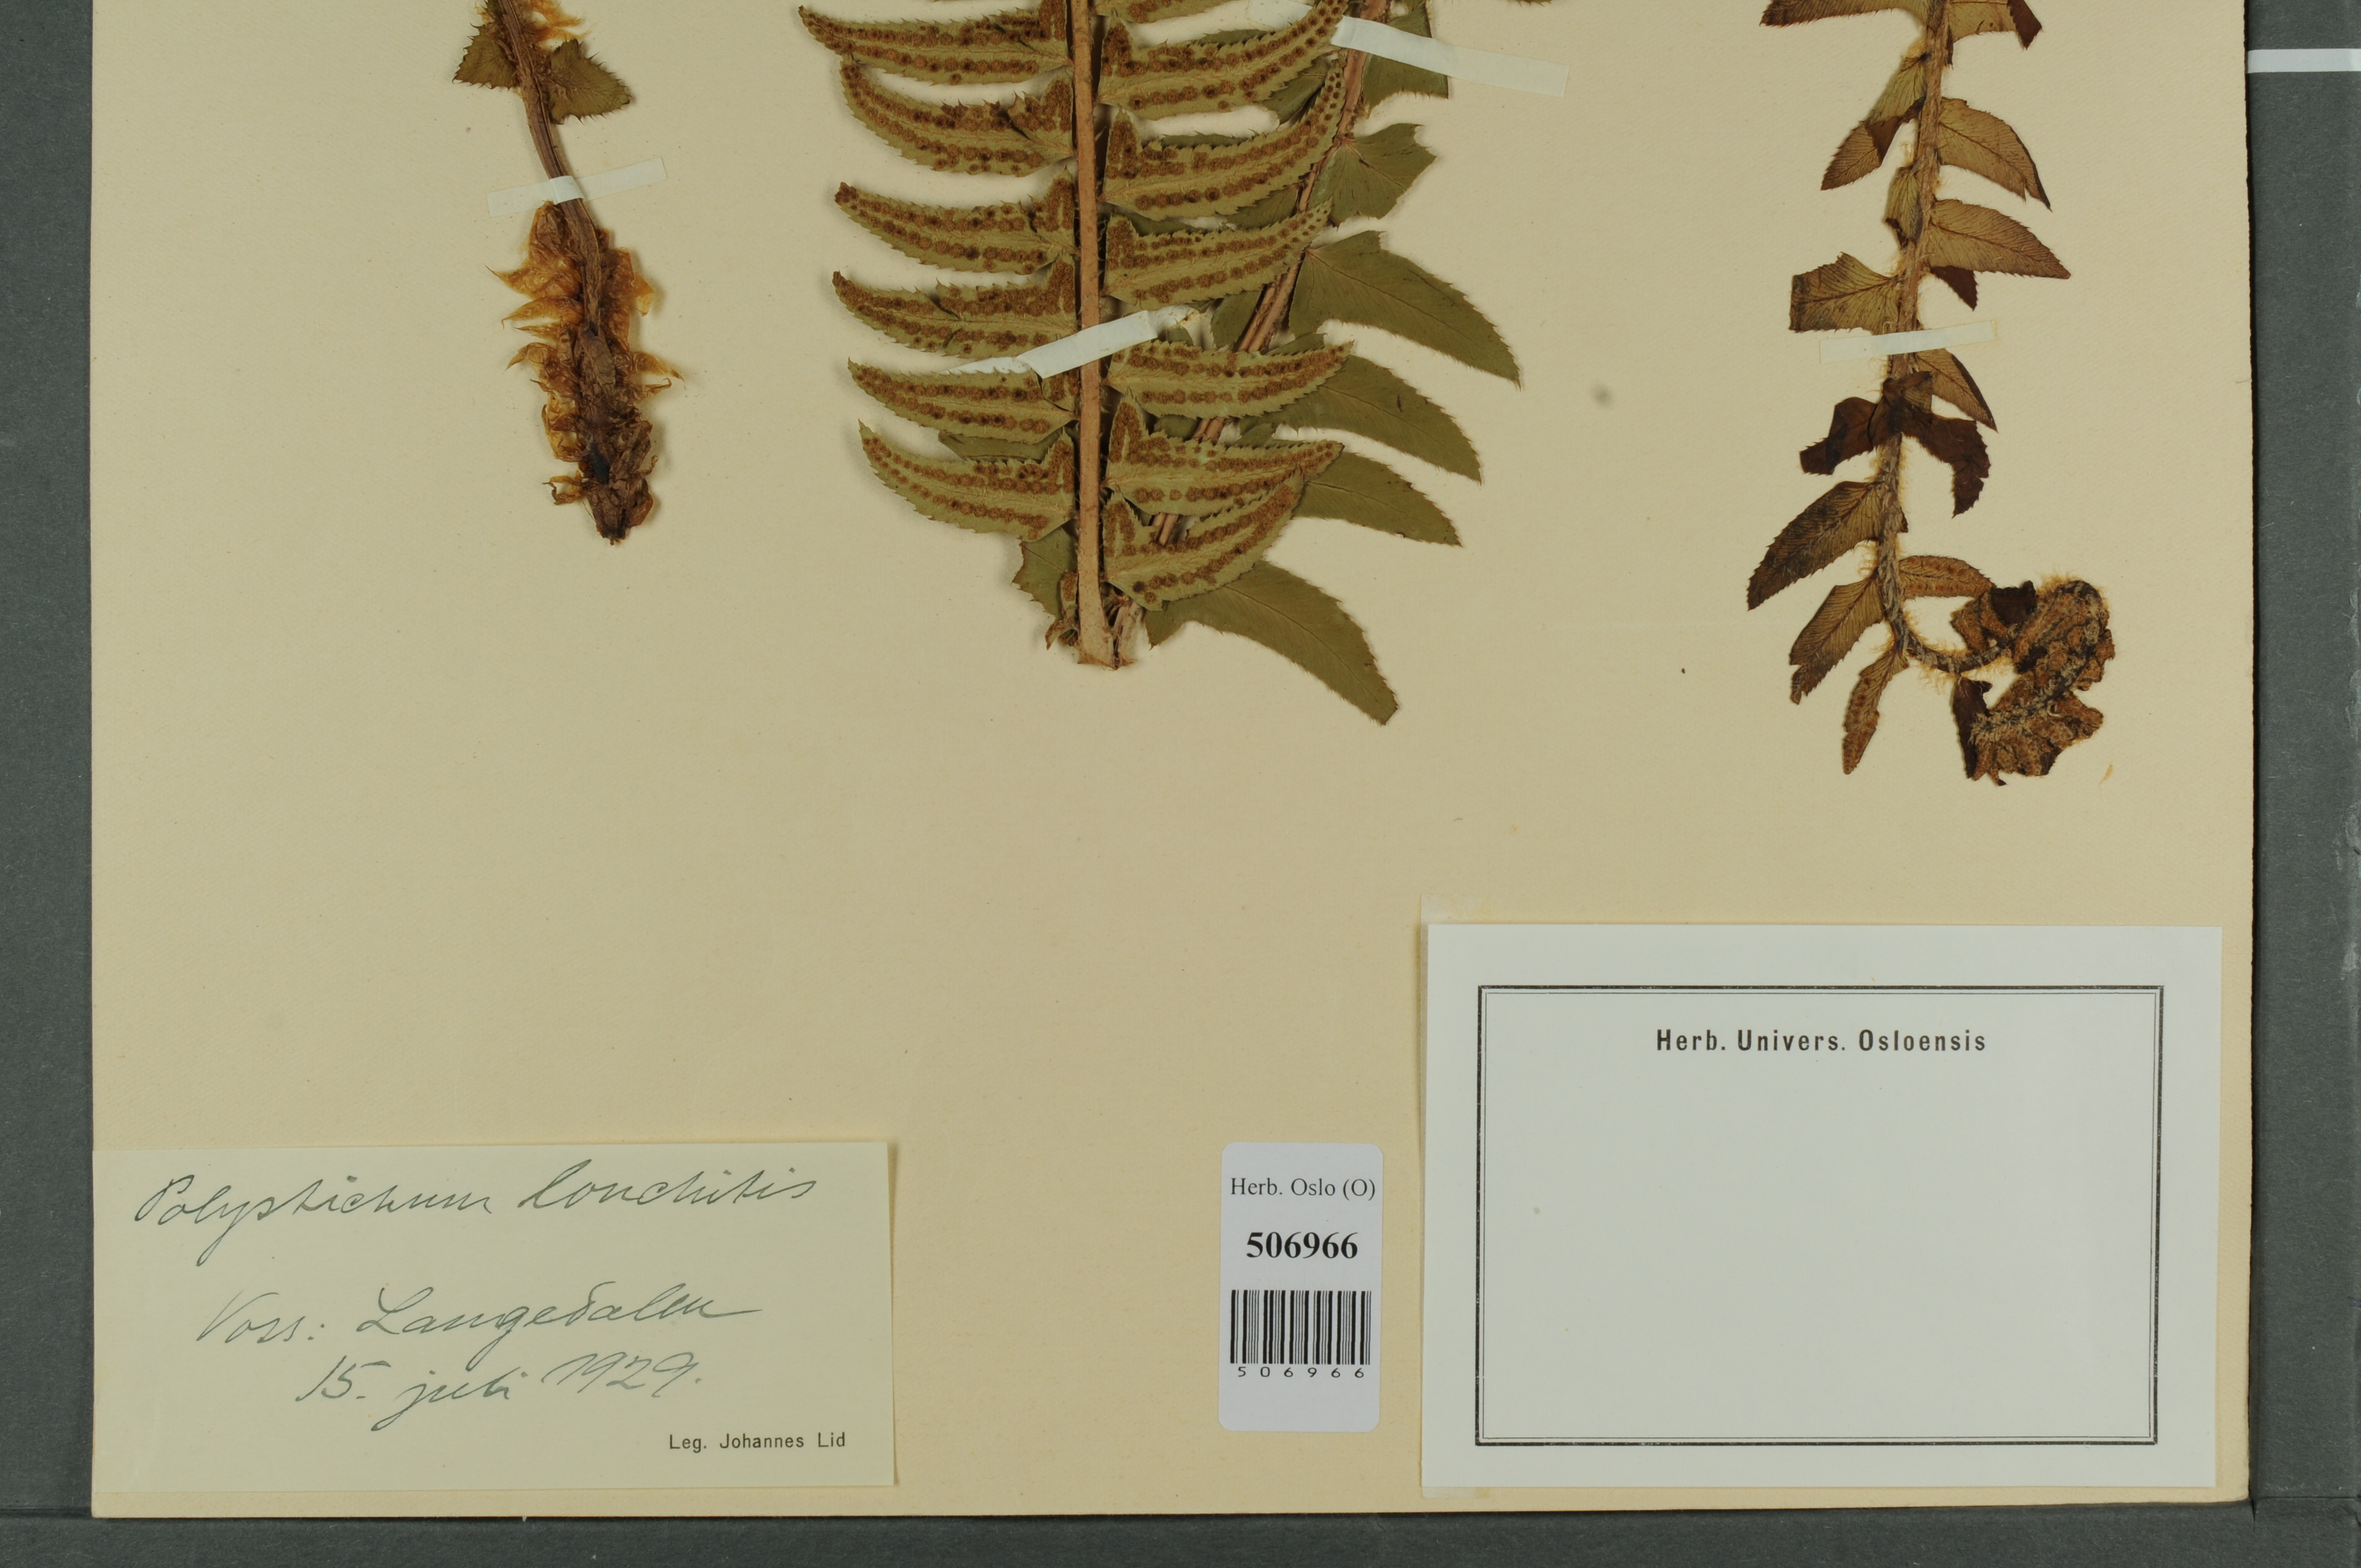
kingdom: Plantae
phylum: Tracheophyta
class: Polypodiopsida
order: Polypodiales
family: Dryopteridaceae
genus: Polystichum
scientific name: Polystichum lonchitis
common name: Holly fern
